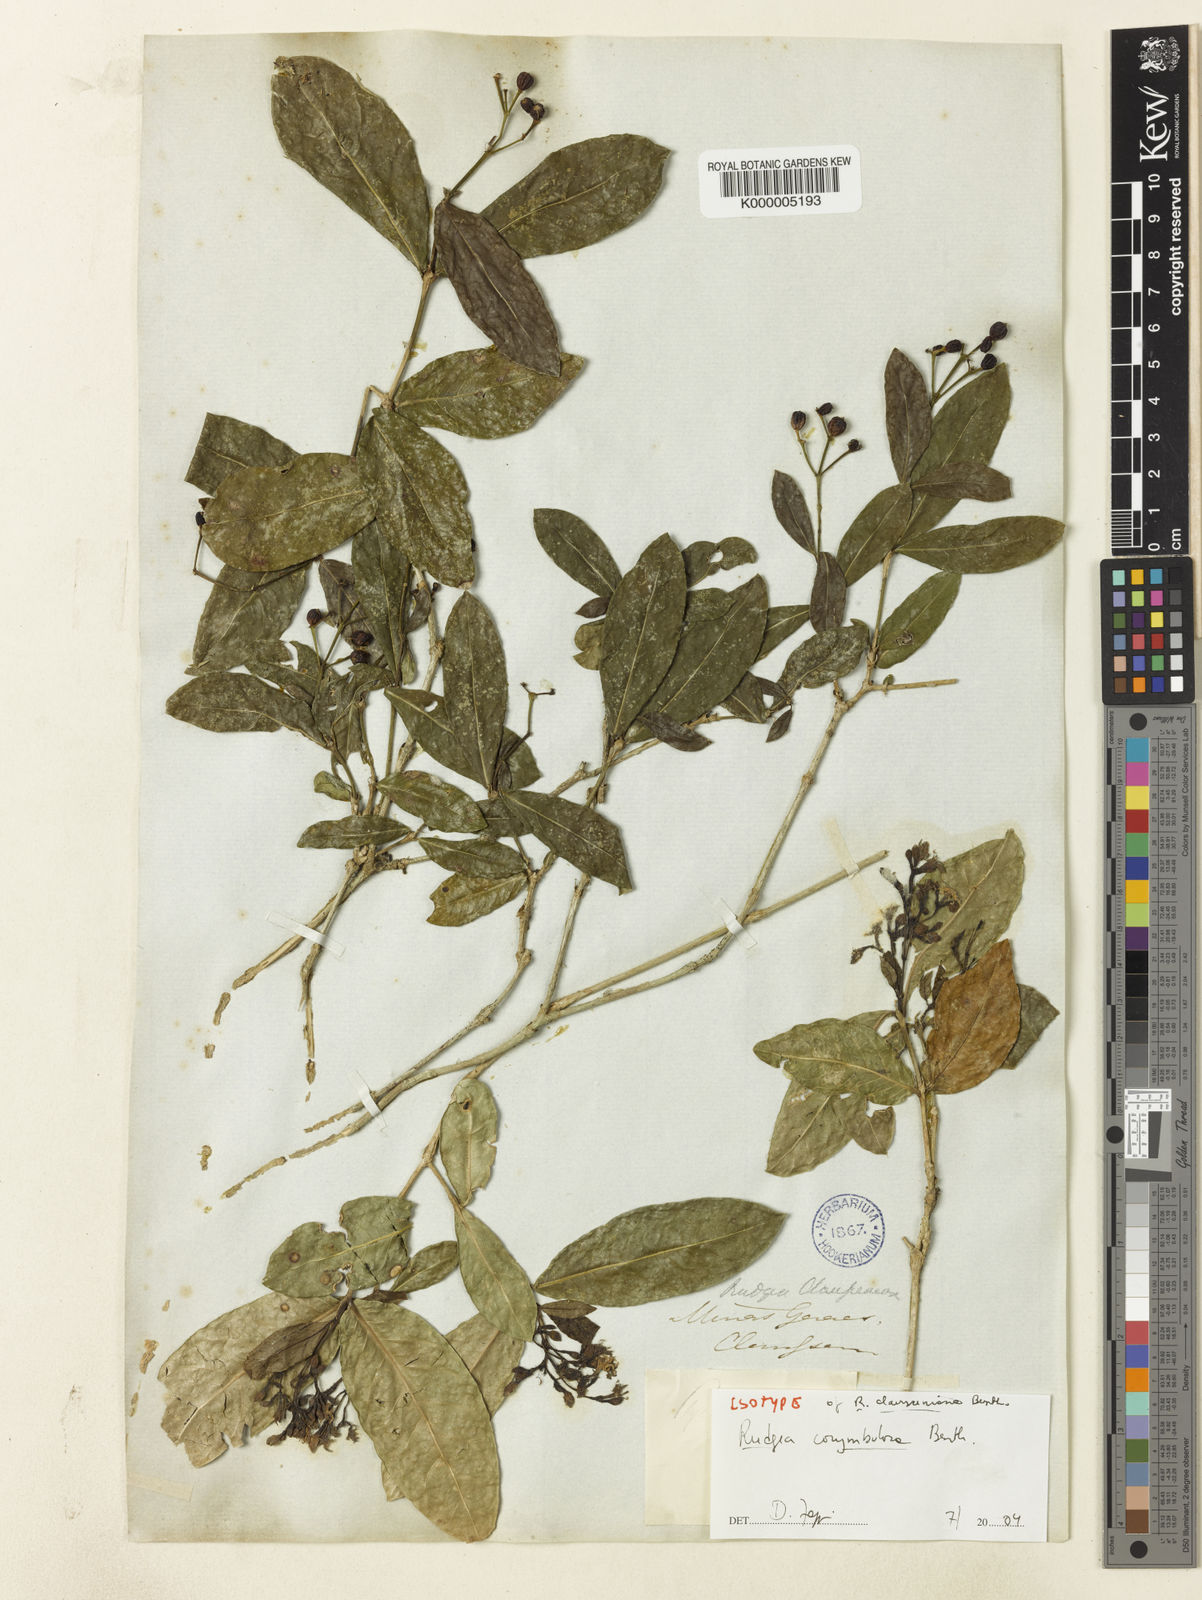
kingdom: Plantae
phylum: Tracheophyta
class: Magnoliopsida
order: Gentianales
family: Rubiaceae
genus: Rudgea
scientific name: Rudgea corymbulosa
